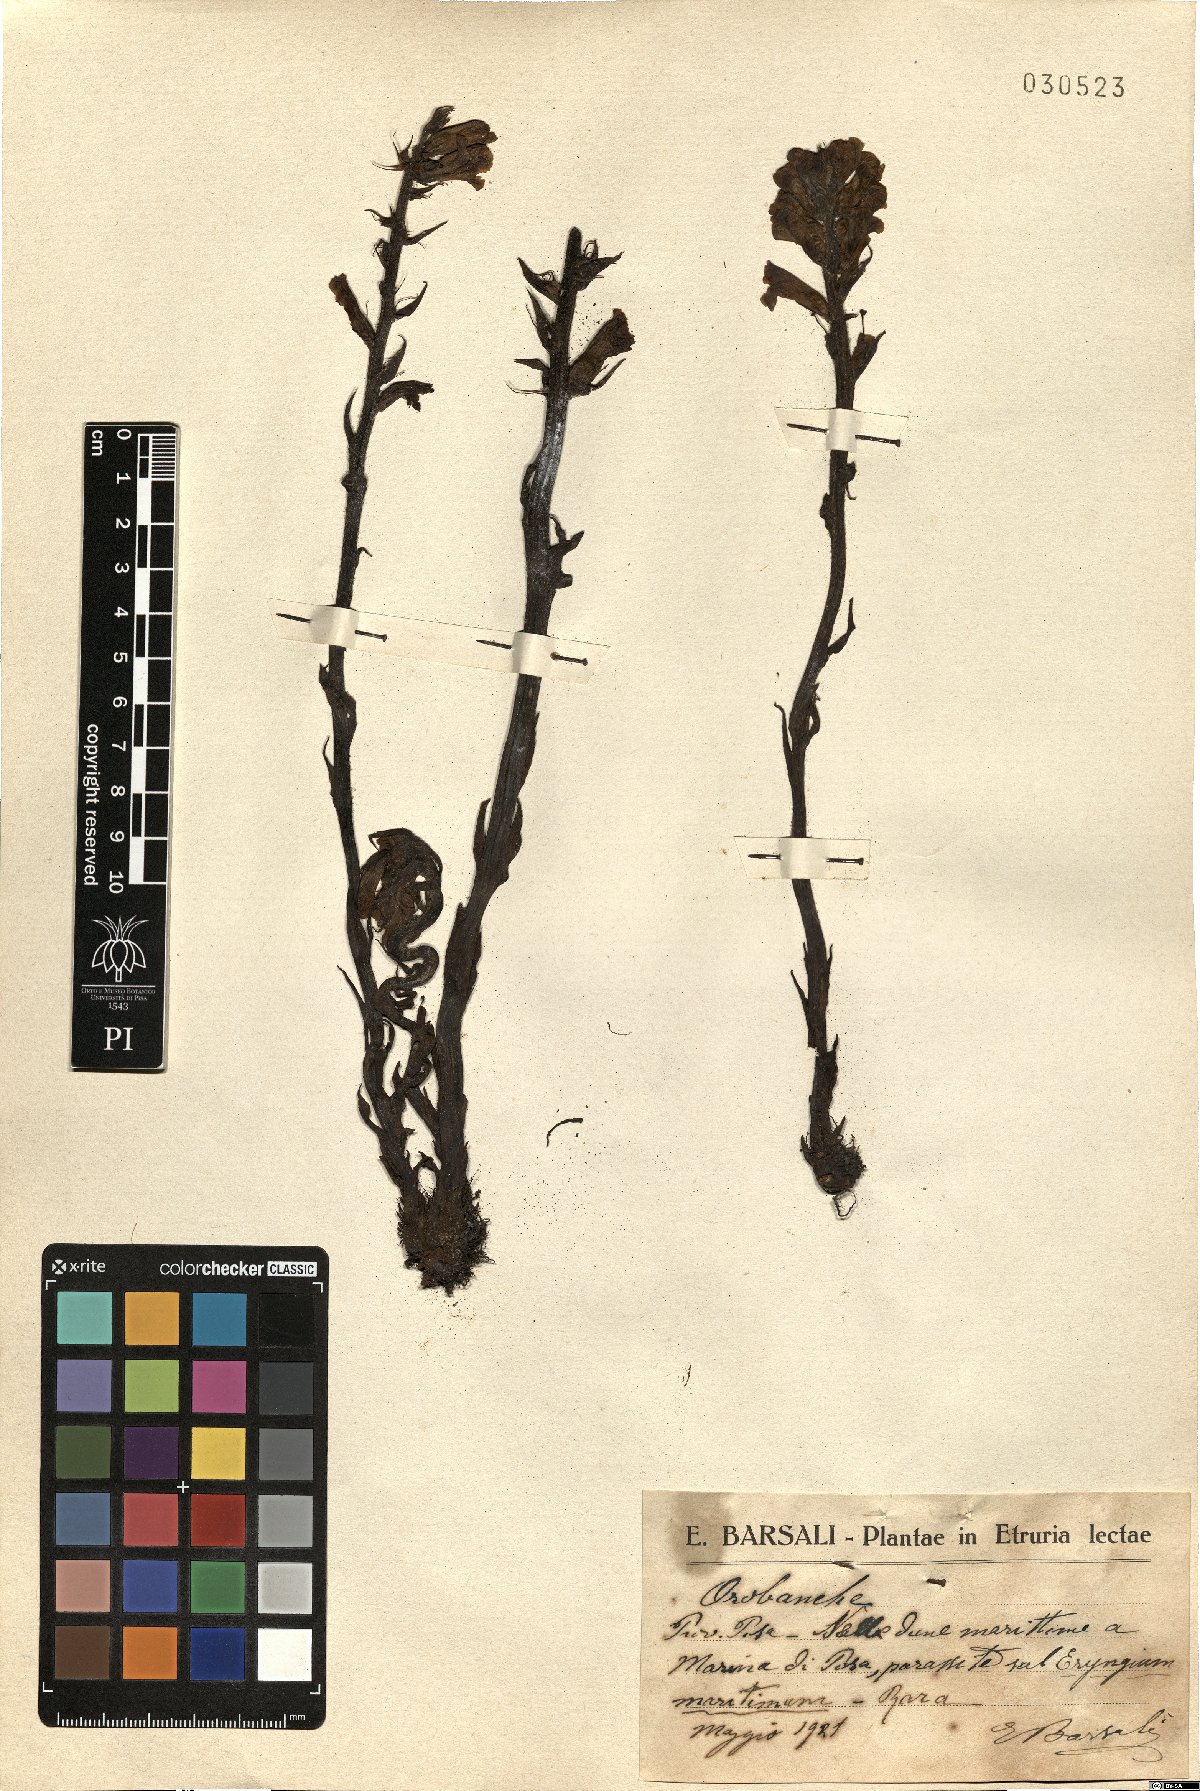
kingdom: Plantae
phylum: Tracheophyta
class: Magnoliopsida
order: Lamiales
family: Orobanchaceae
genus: Orobanche
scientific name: Orobanche
